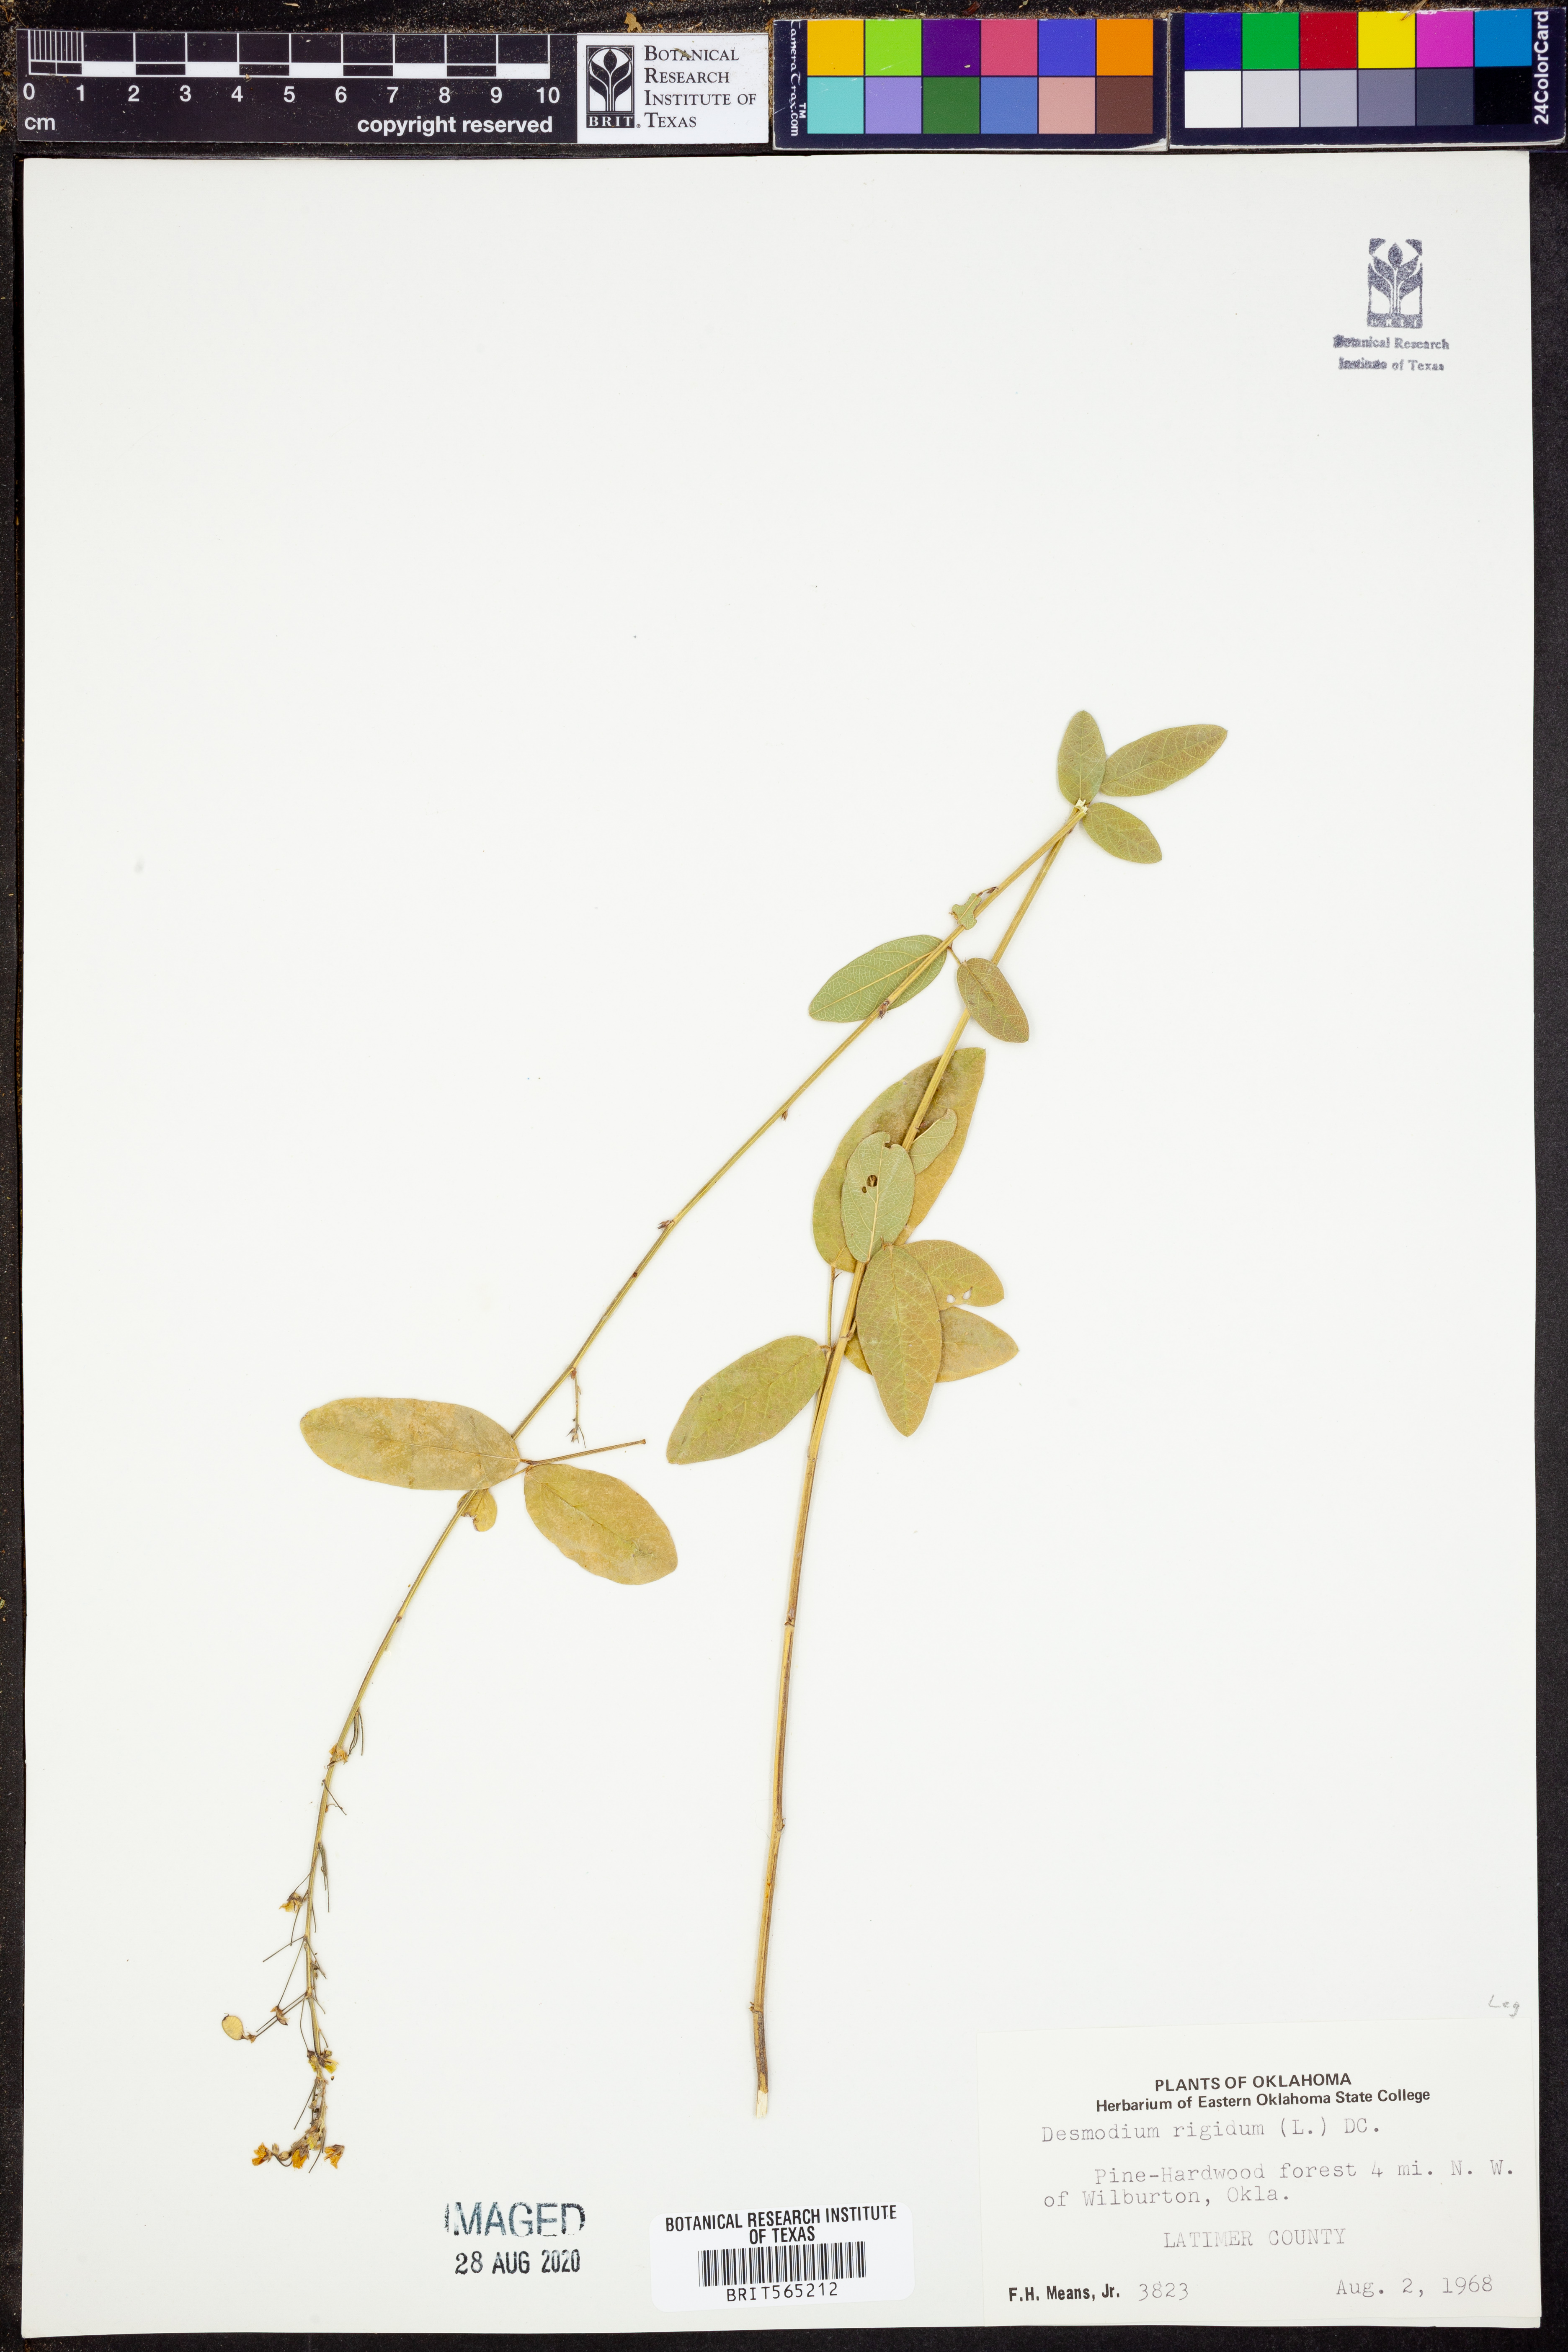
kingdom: Plantae
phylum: Tracheophyta
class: Magnoliopsida
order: Fabales
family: Fabaceae
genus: Desmodium
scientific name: Desmodium obtusum
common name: Stiff tick trefoil
